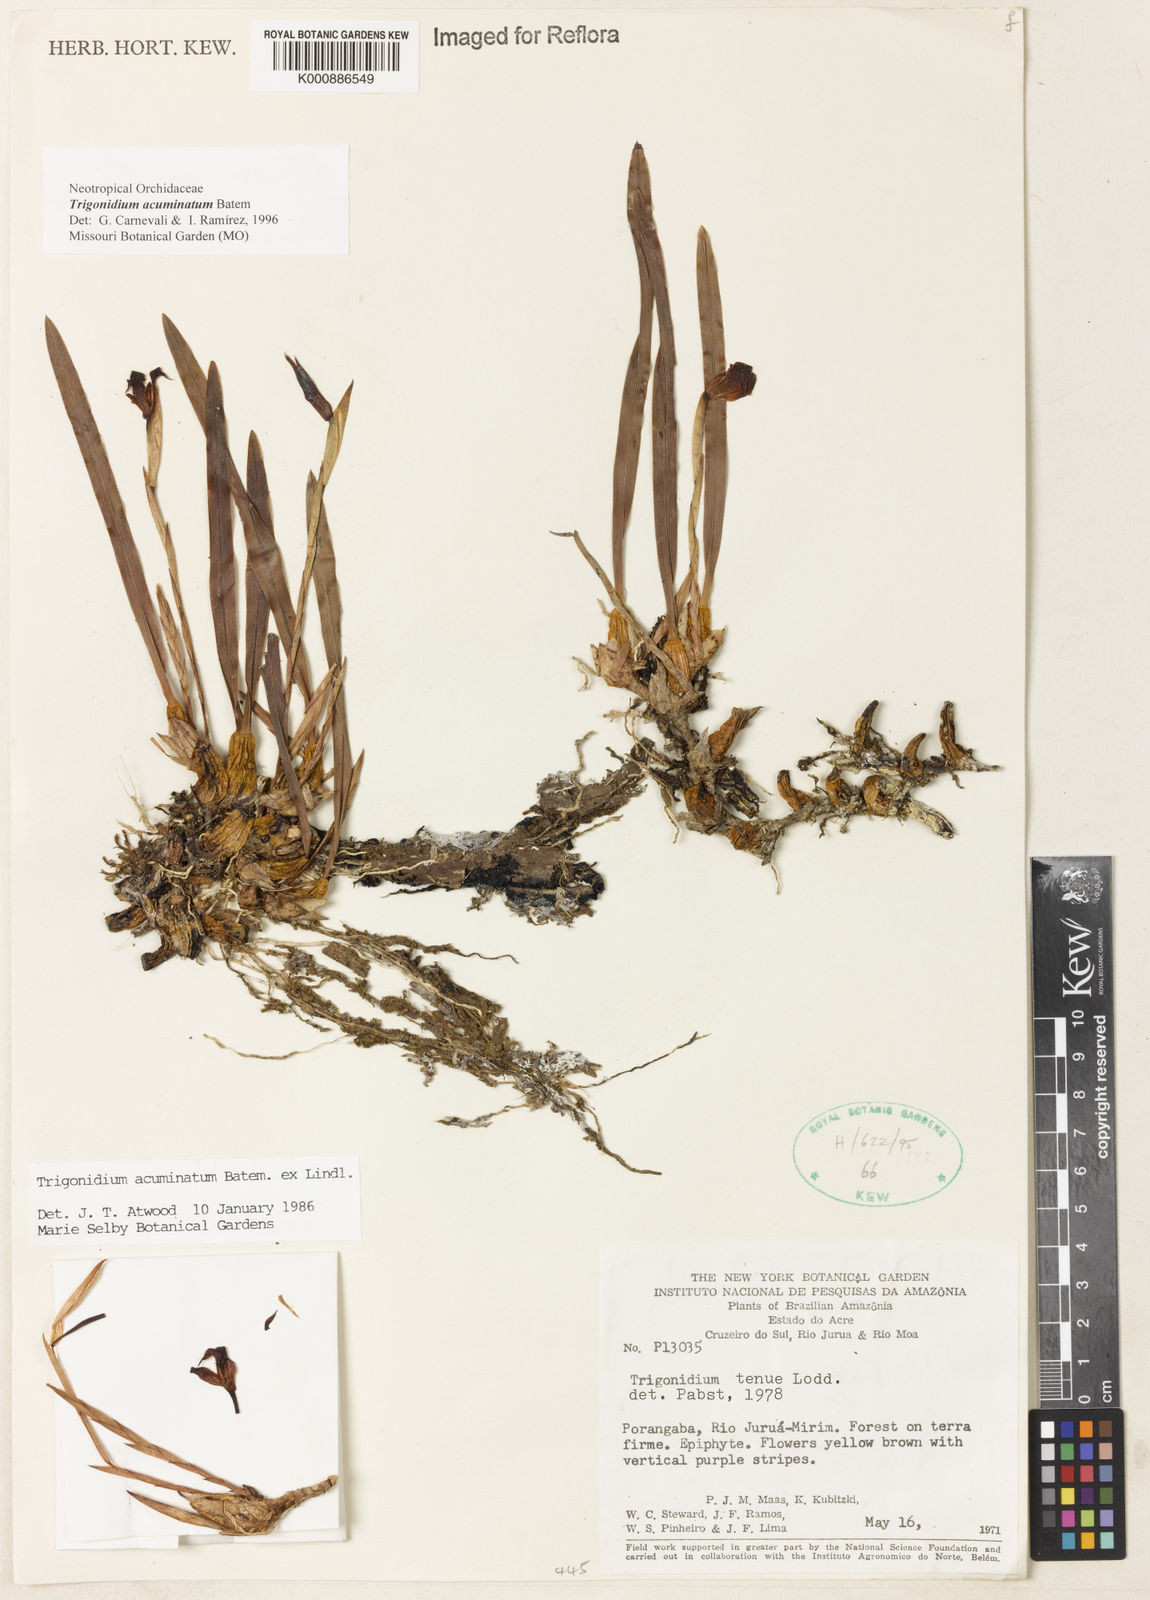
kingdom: Animalia
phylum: Arthropoda
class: Insecta
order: Orthoptera
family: Trigonidiidae
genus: Trigonidium
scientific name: Trigonidium
